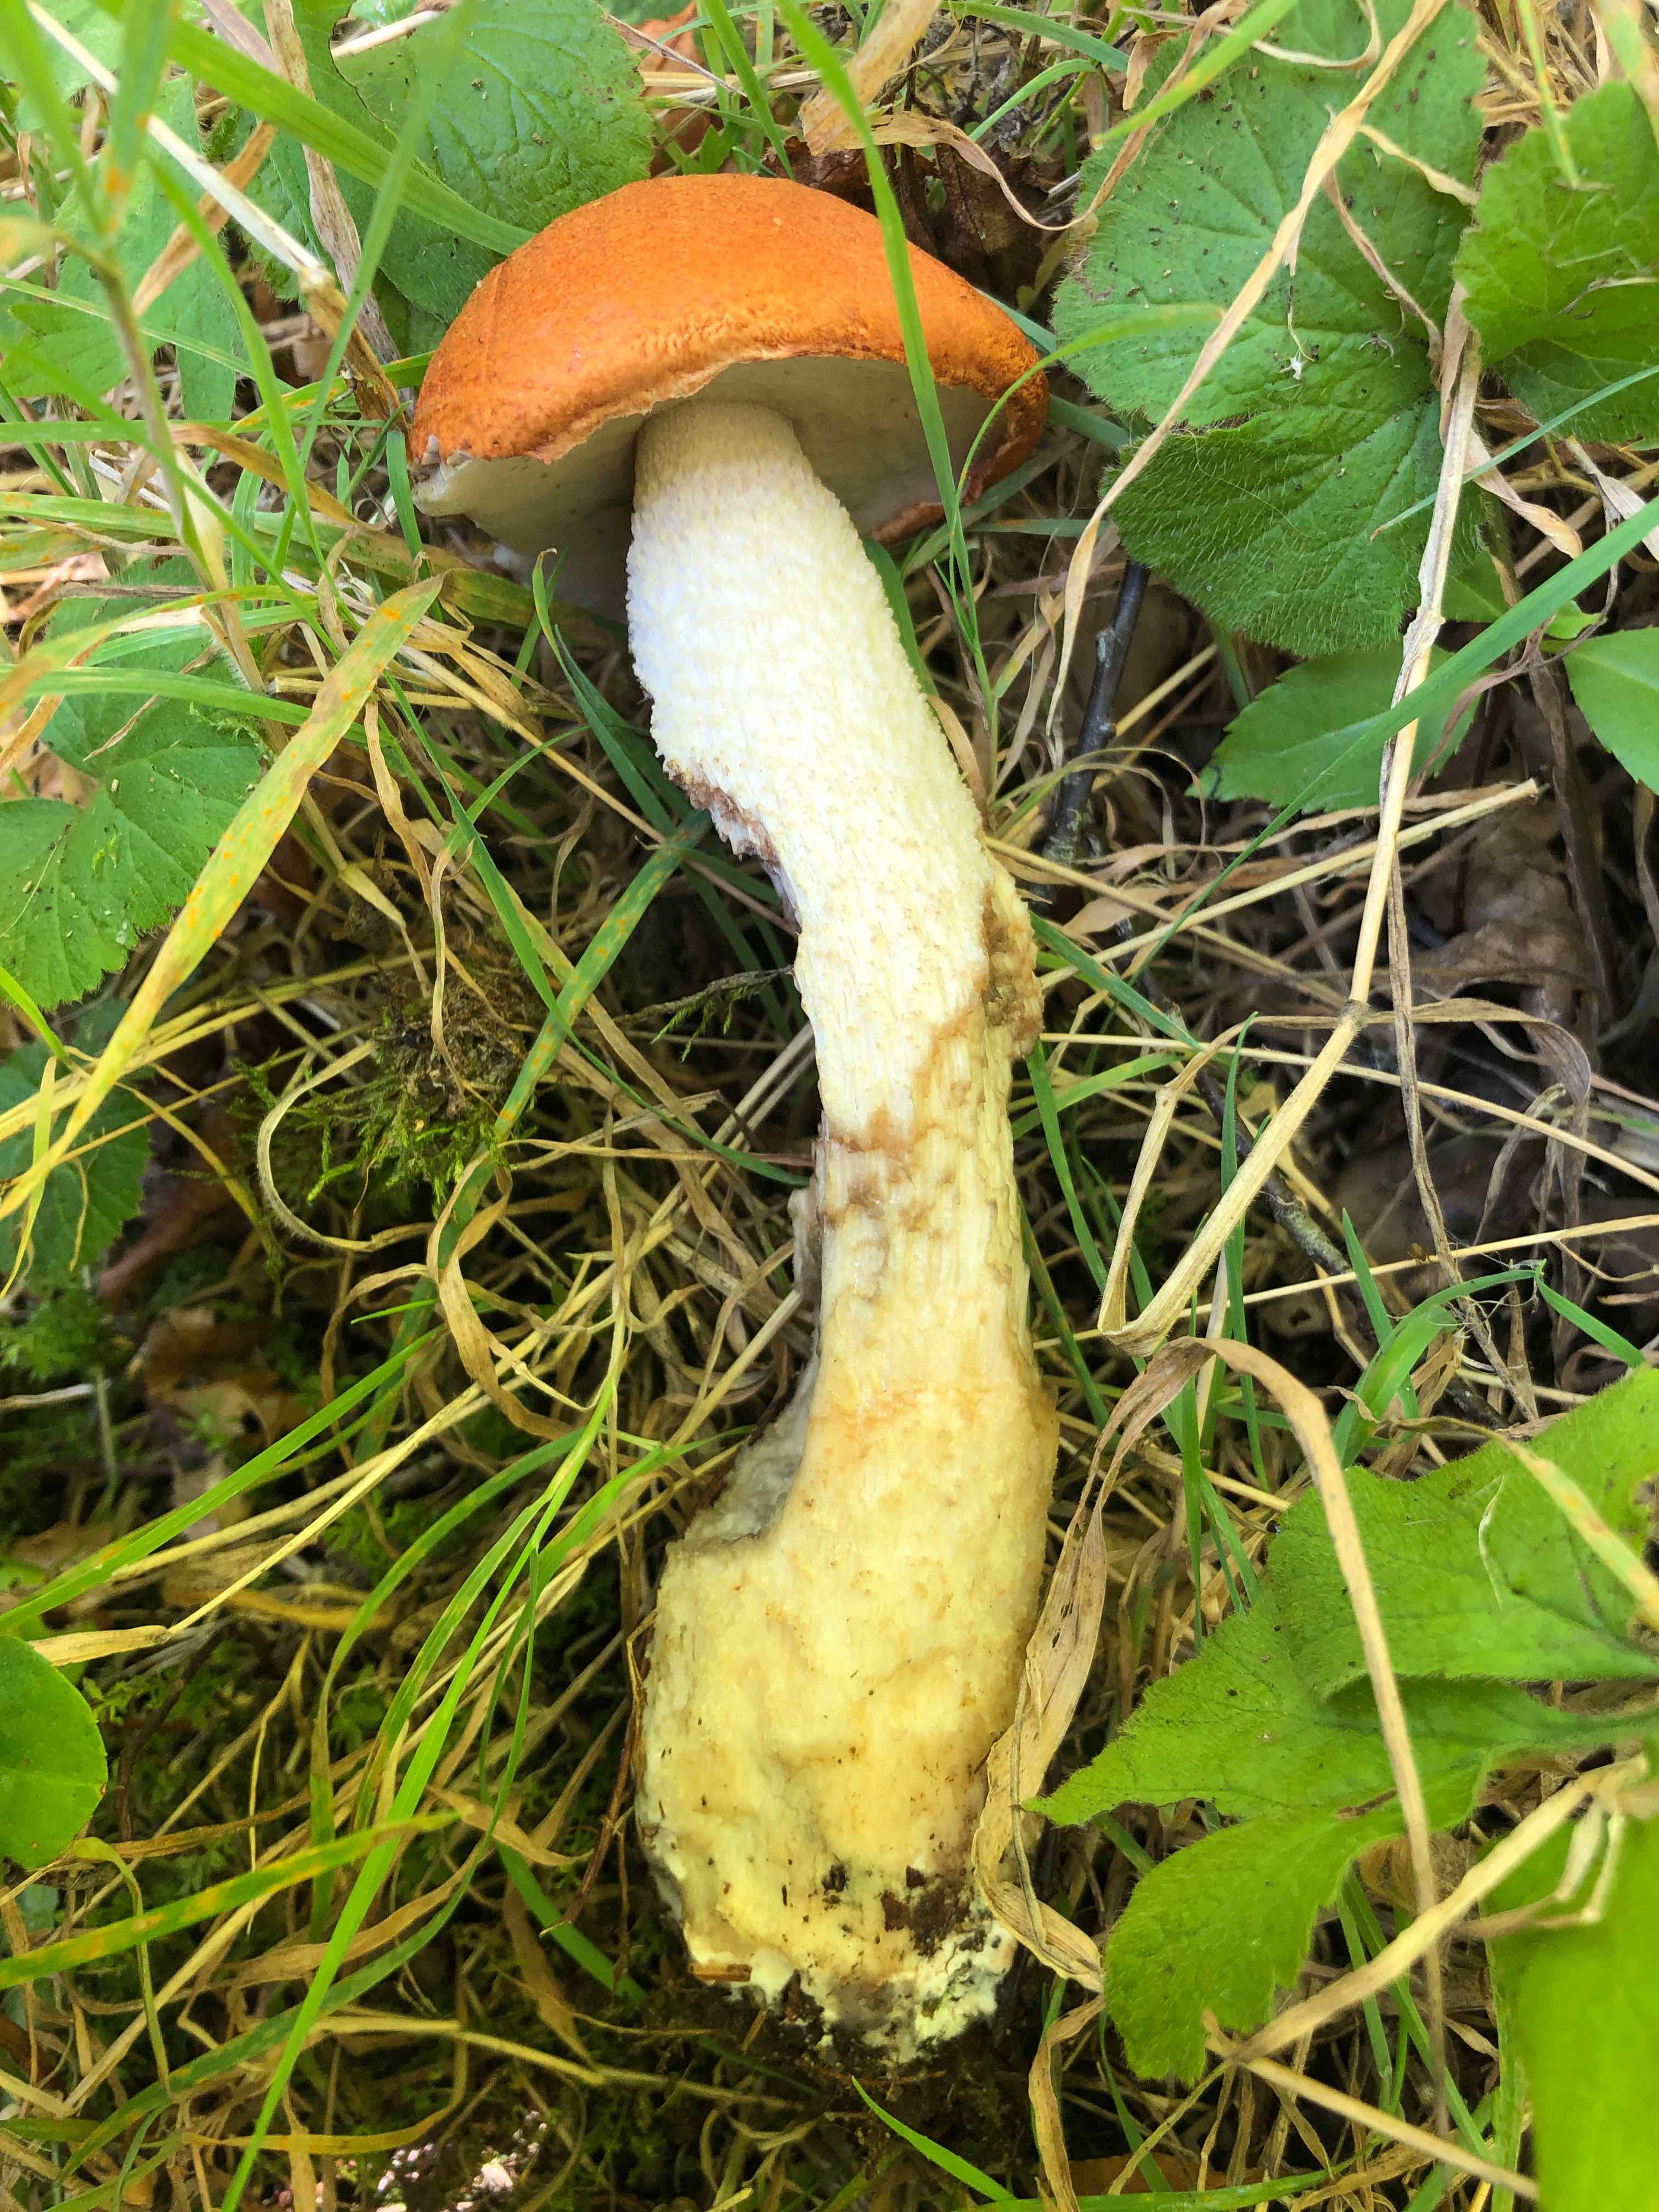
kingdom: Fungi
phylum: Basidiomycota
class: Agaricomycetes
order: Boletales
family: Boletaceae
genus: Leccinum
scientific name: Leccinum albostipitatum
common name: aspe-skælrørhat
